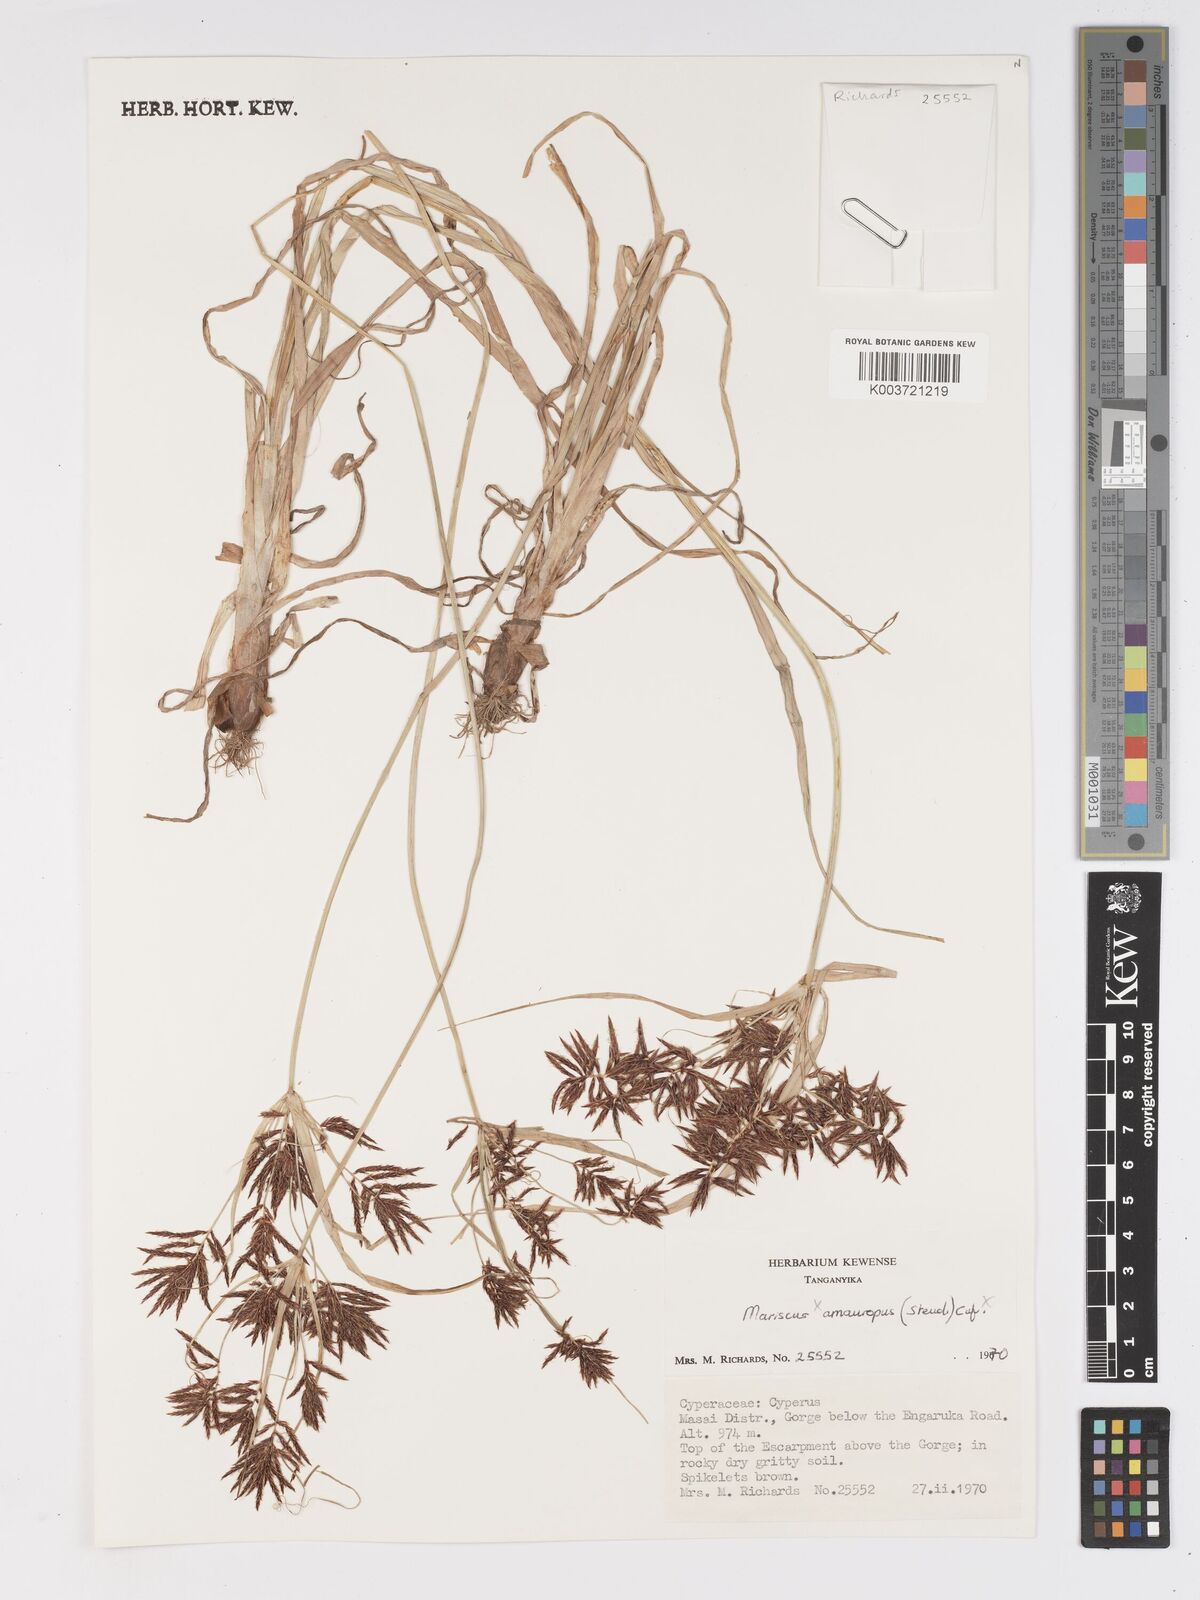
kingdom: Plantae
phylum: Tracheophyta
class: Liliopsida
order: Poales
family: Cyperaceae
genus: Cyperus
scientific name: Cyperus amauropus
